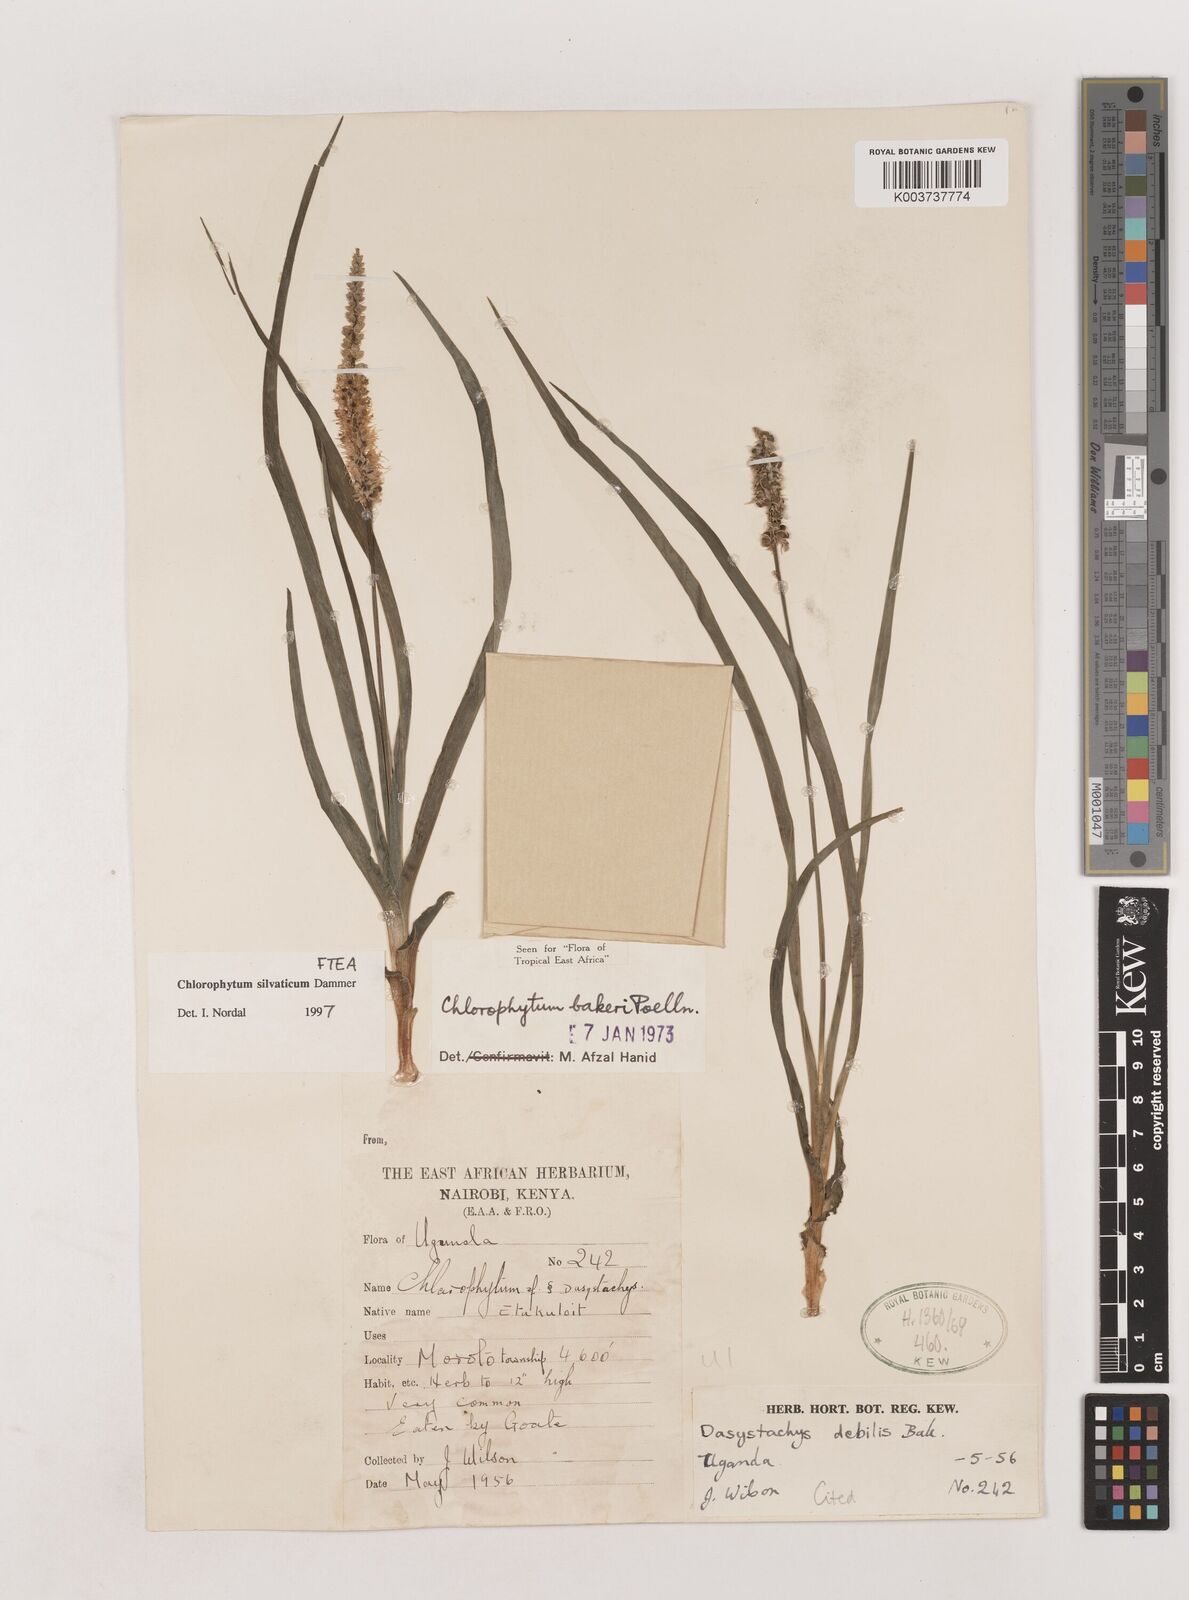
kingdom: Plantae
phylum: Tracheophyta
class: Liliopsida
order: Asparagales
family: Asparagaceae
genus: Chlorophytum
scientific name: Chlorophytum africanum
